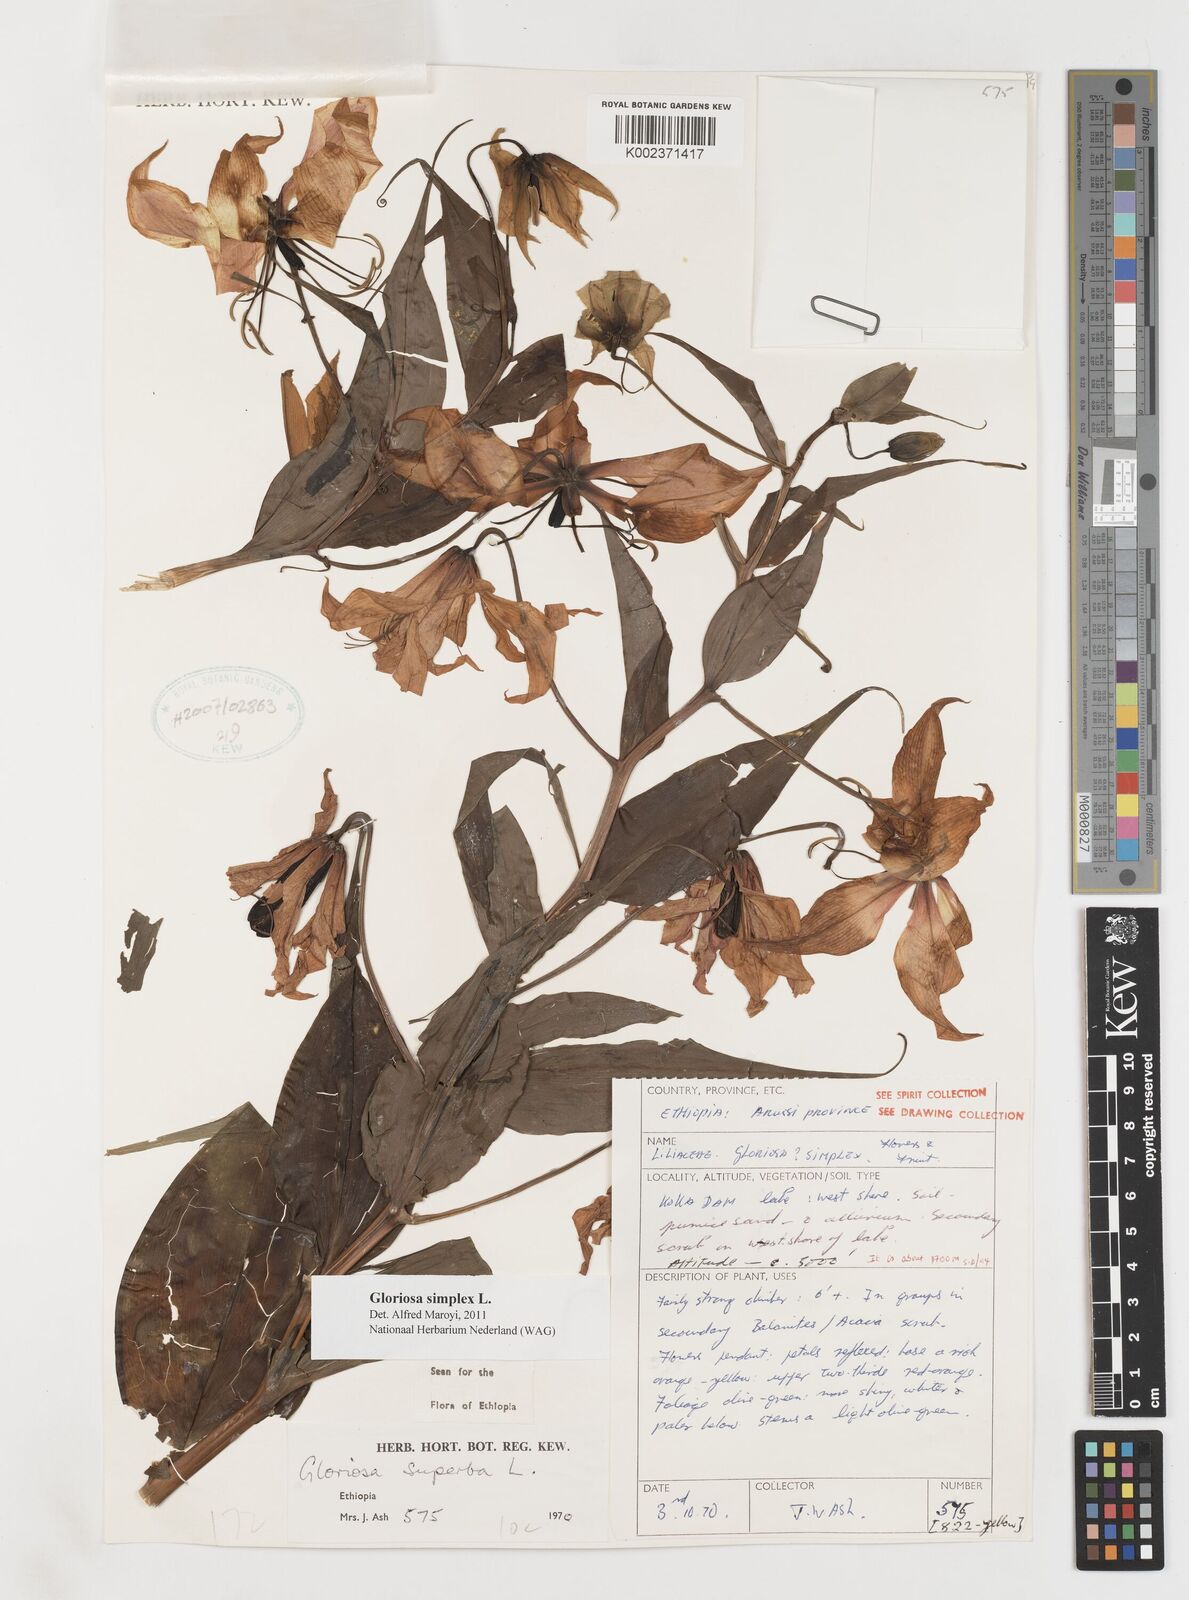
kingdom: Plantae
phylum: Tracheophyta
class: Liliopsida
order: Liliales
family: Colchicaceae
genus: Gloriosa
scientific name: Gloriosa simplex
